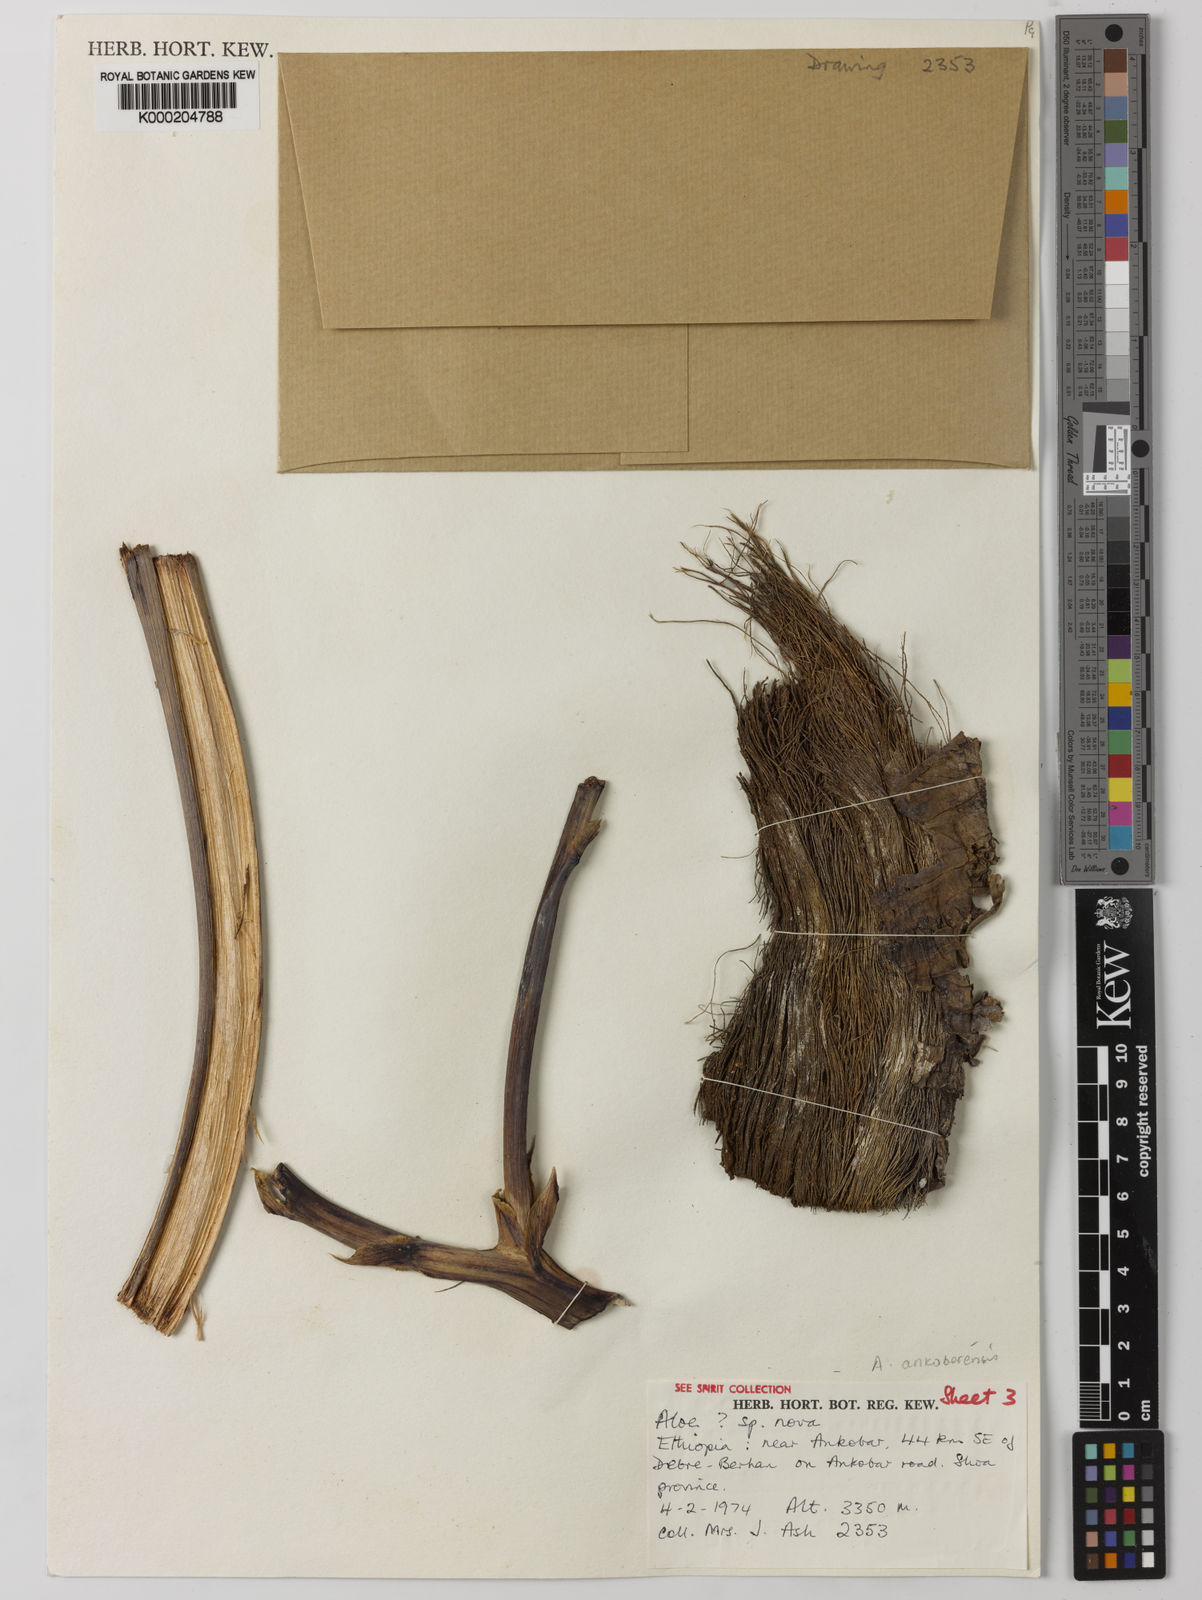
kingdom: Plantae
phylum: Tracheophyta
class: Liliopsida
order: Asparagales
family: Asphodelaceae
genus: Aloe
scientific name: Aloe ankoberensis
